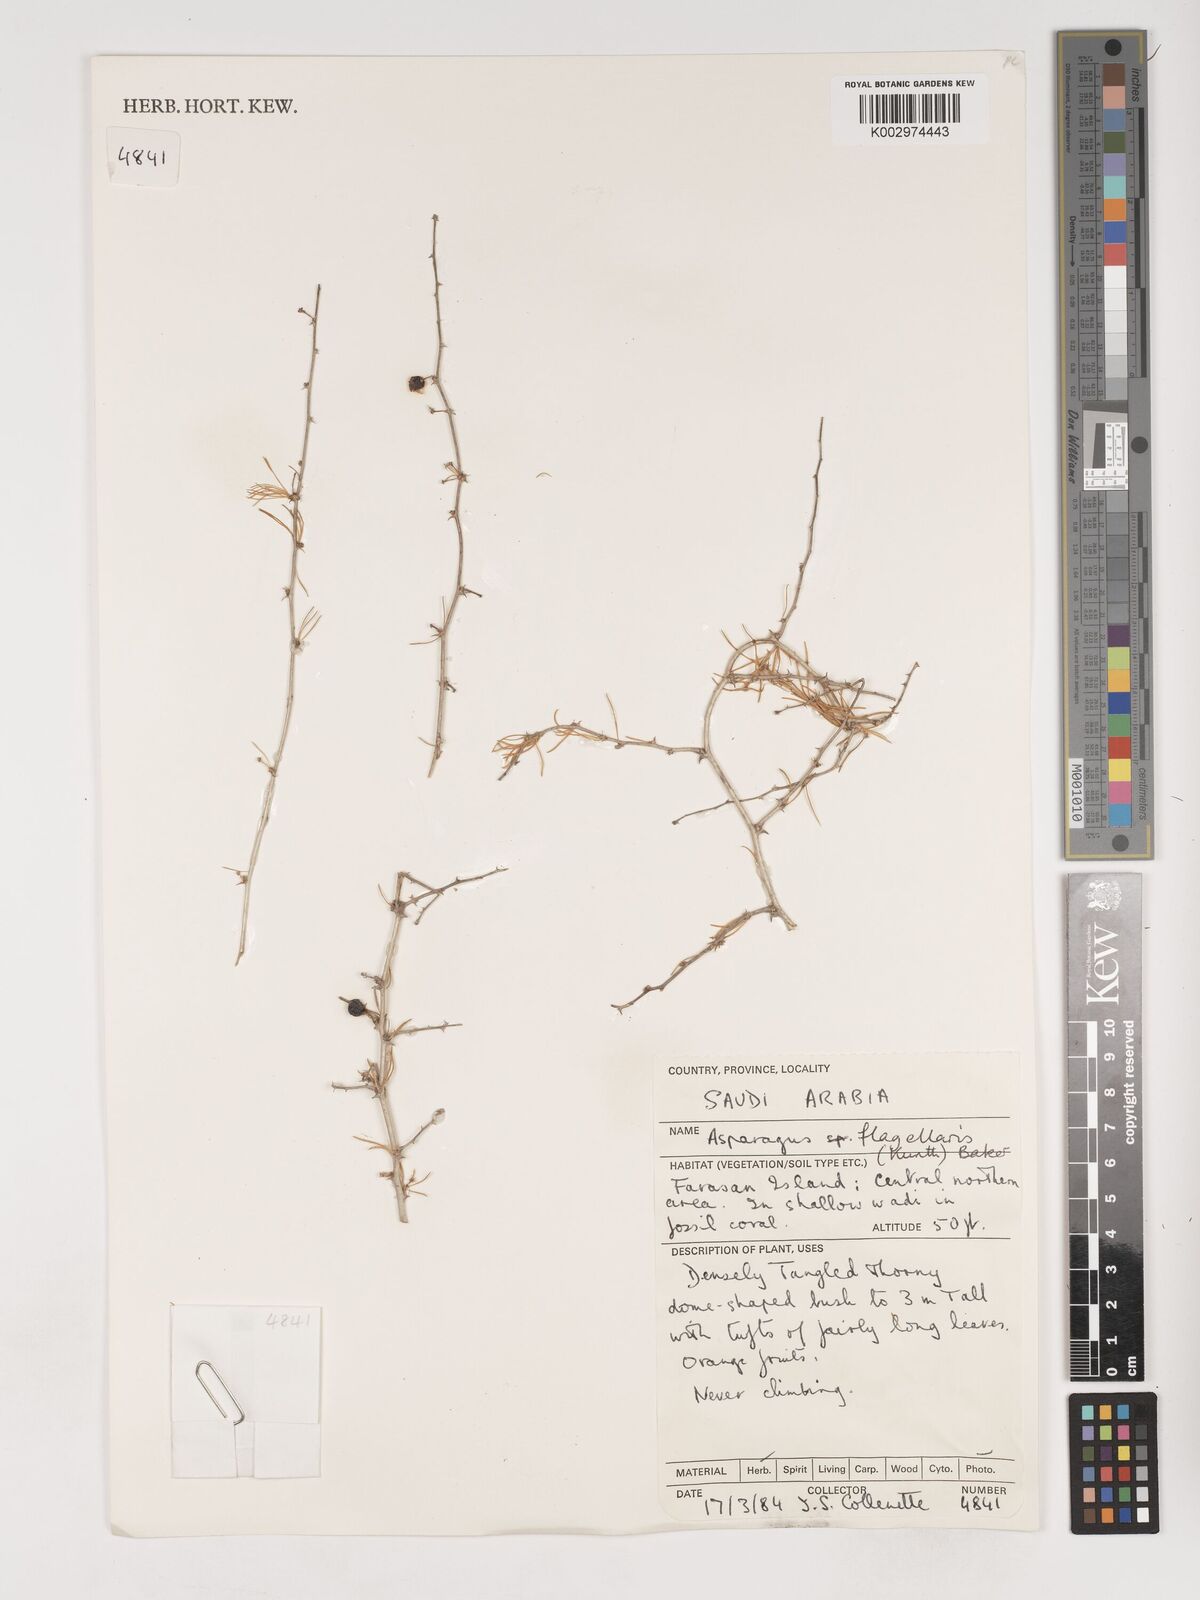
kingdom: Plantae
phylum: Tracheophyta
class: Liliopsida
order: Asparagales
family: Asparagaceae
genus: Asparagus
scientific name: Asparagus flagellaris
